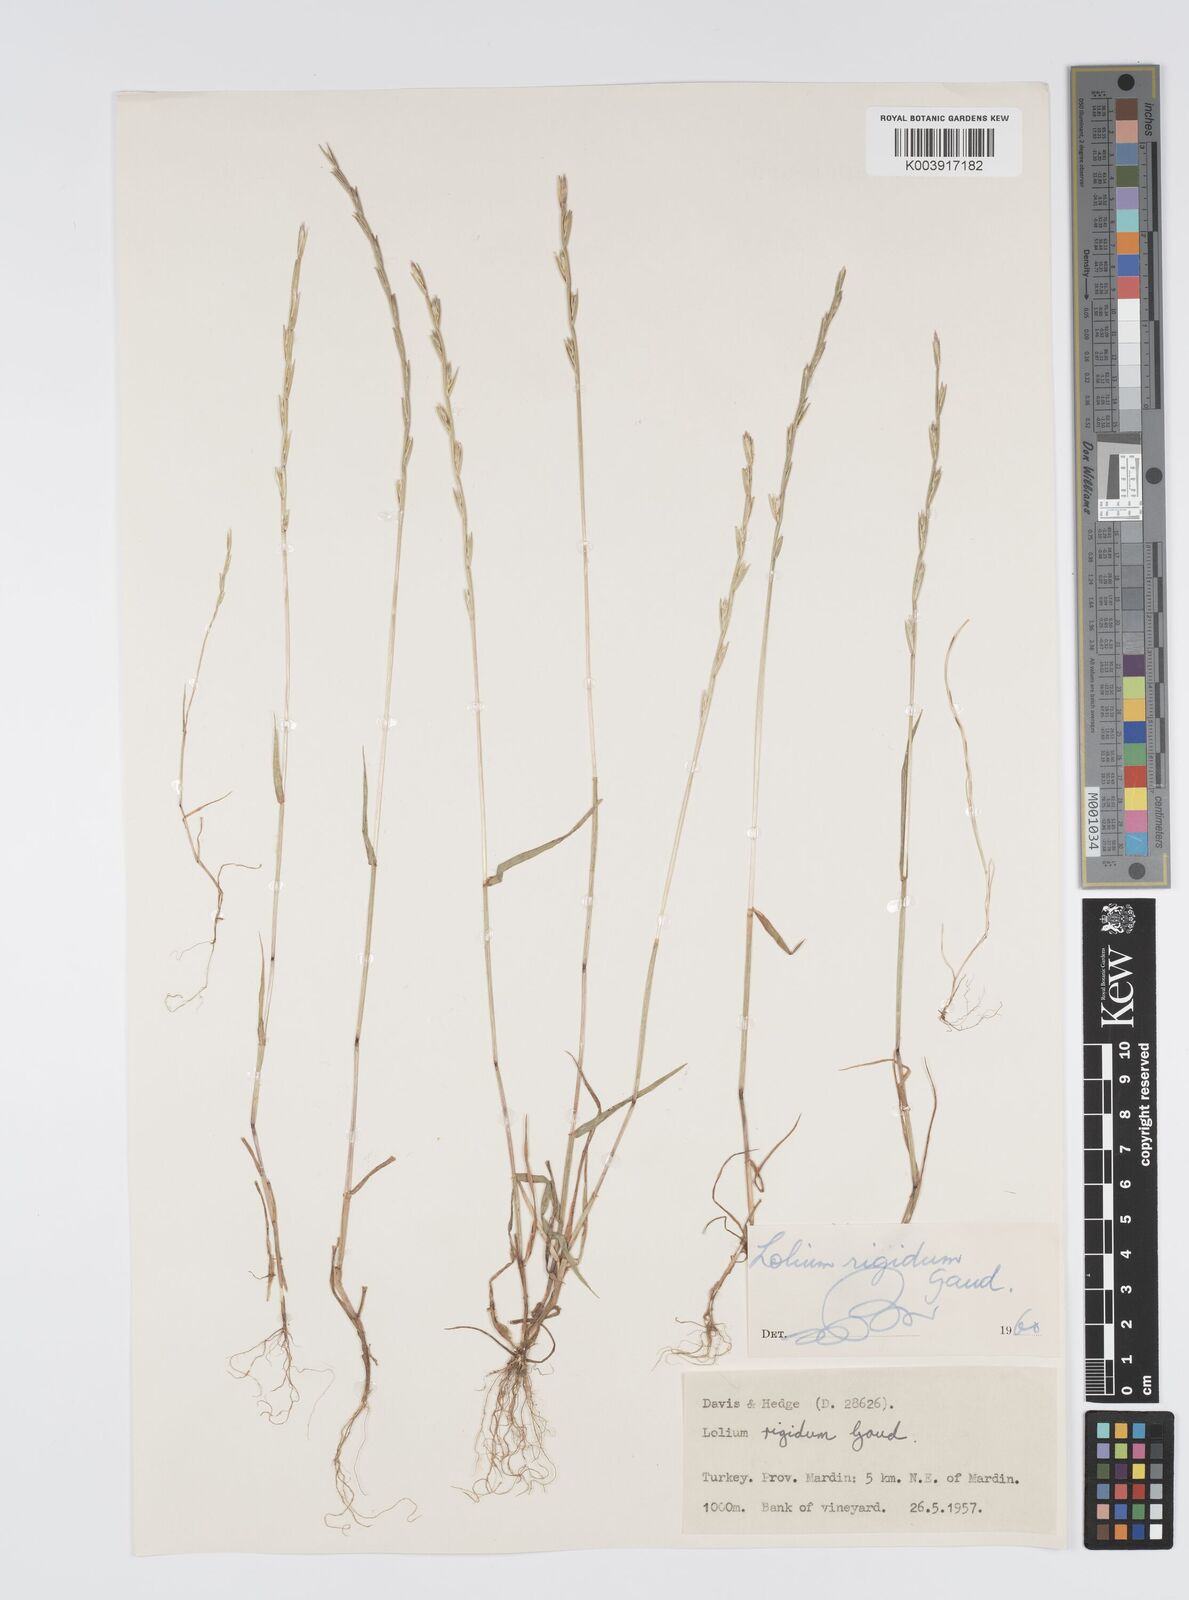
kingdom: Plantae
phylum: Tracheophyta
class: Liliopsida
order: Poales
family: Poaceae
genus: Lolium
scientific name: Lolium rigidum
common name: Wimmera ryegrass
